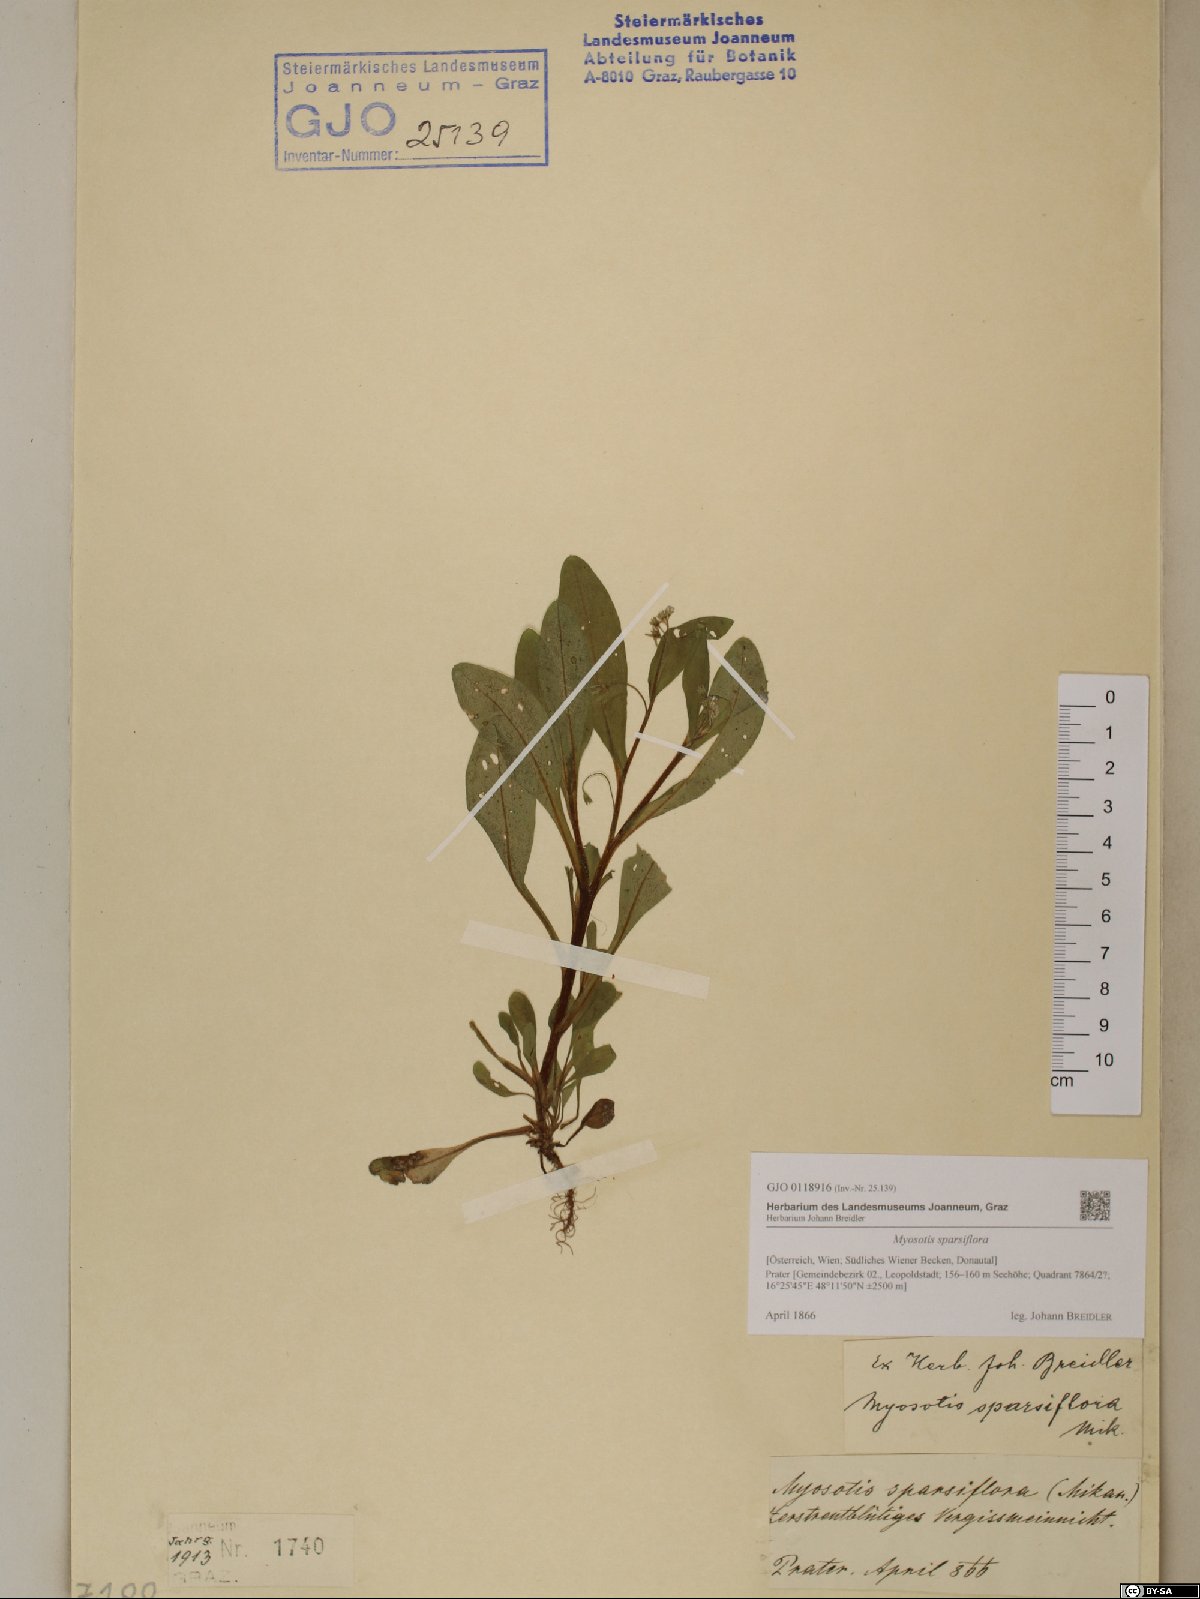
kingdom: Plantae
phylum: Tracheophyta
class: Magnoliopsida
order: Boraginales
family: Boraginaceae
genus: Myosotis
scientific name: Myosotis sparsiflora
